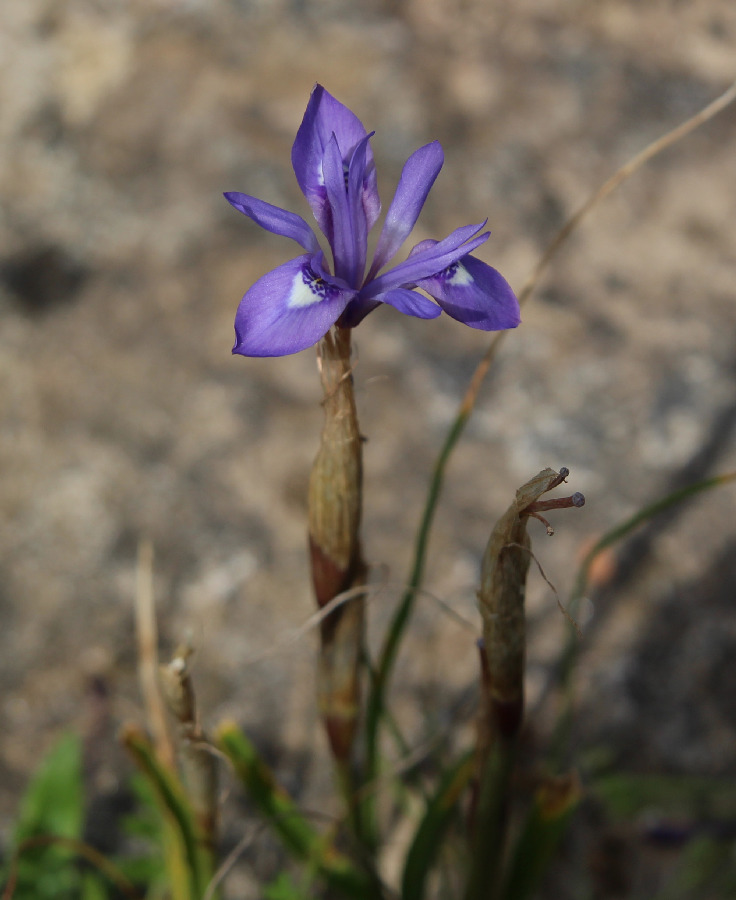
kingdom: Plantae
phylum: Tracheophyta
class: Liliopsida
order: Asparagales
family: Iridaceae
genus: Moraea
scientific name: Moraea sisyrinchium
